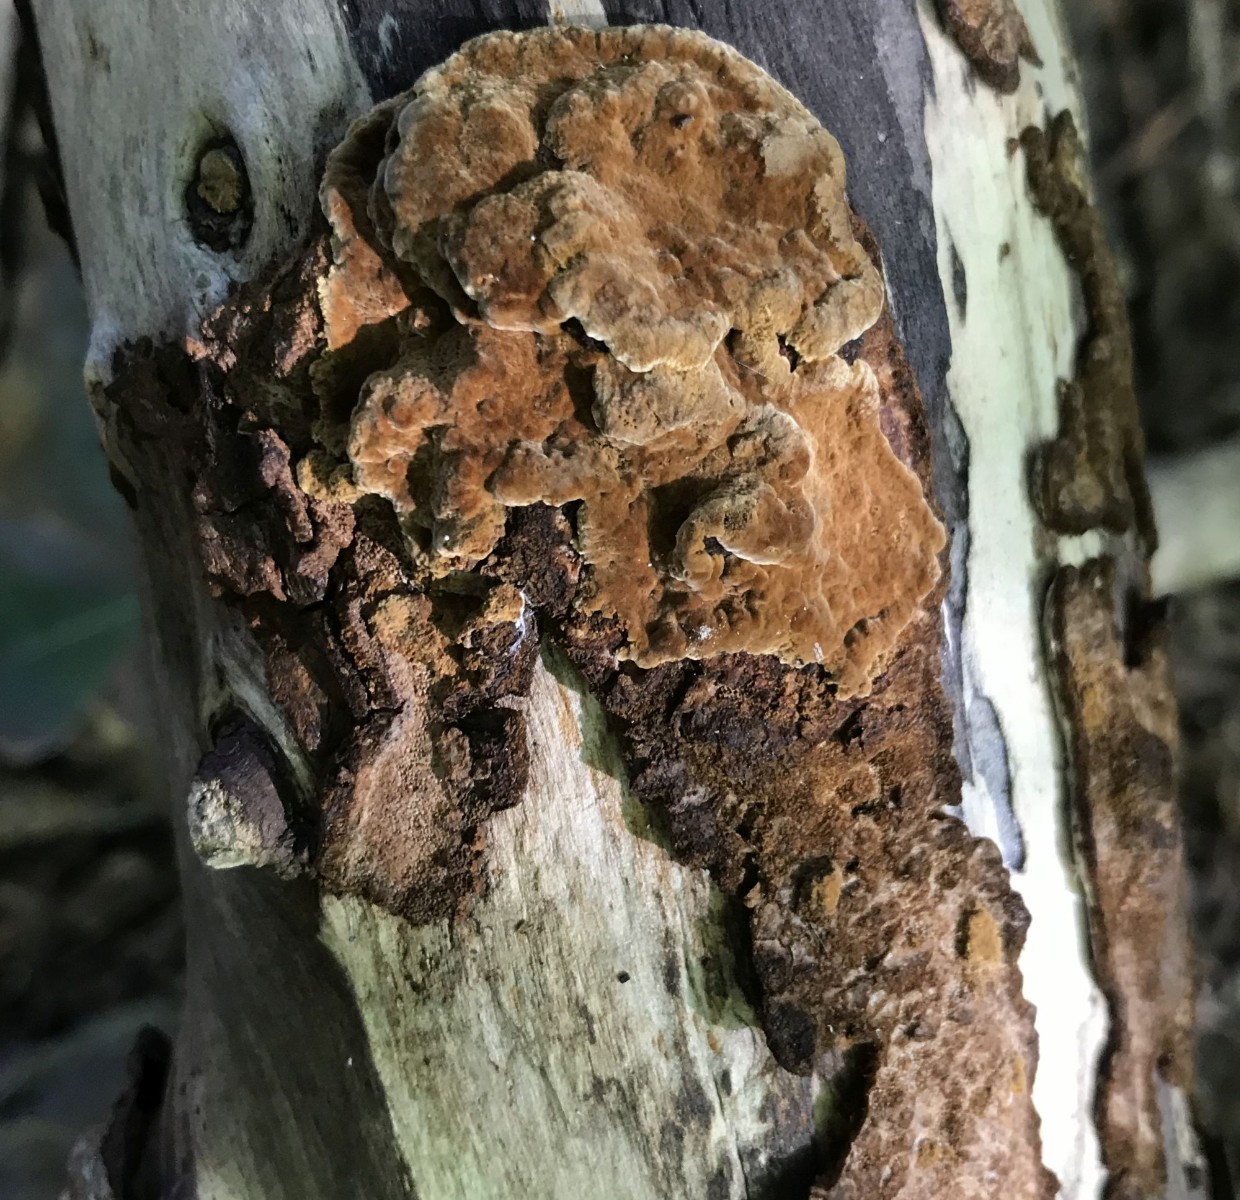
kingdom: Fungi
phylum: Basidiomycota
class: Agaricomycetes
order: Hymenochaetales
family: Hymenochaetaceae
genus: Mensularia
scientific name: Mensularia nodulosa
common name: bøge-spejlporesvamp
